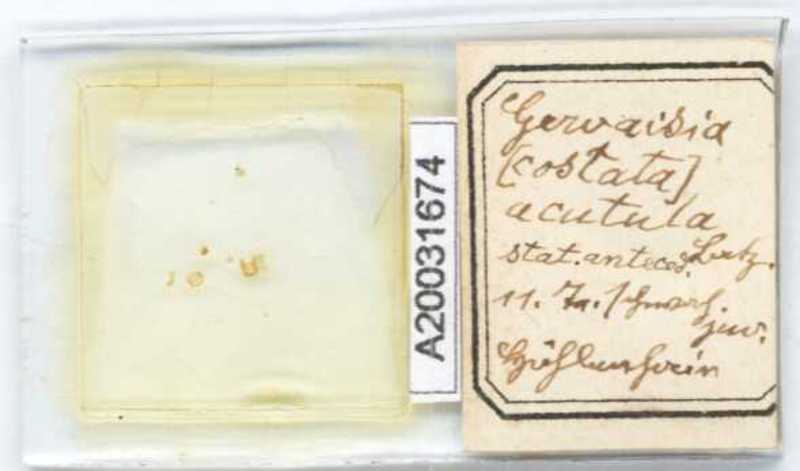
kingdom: Animalia
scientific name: Animalia
